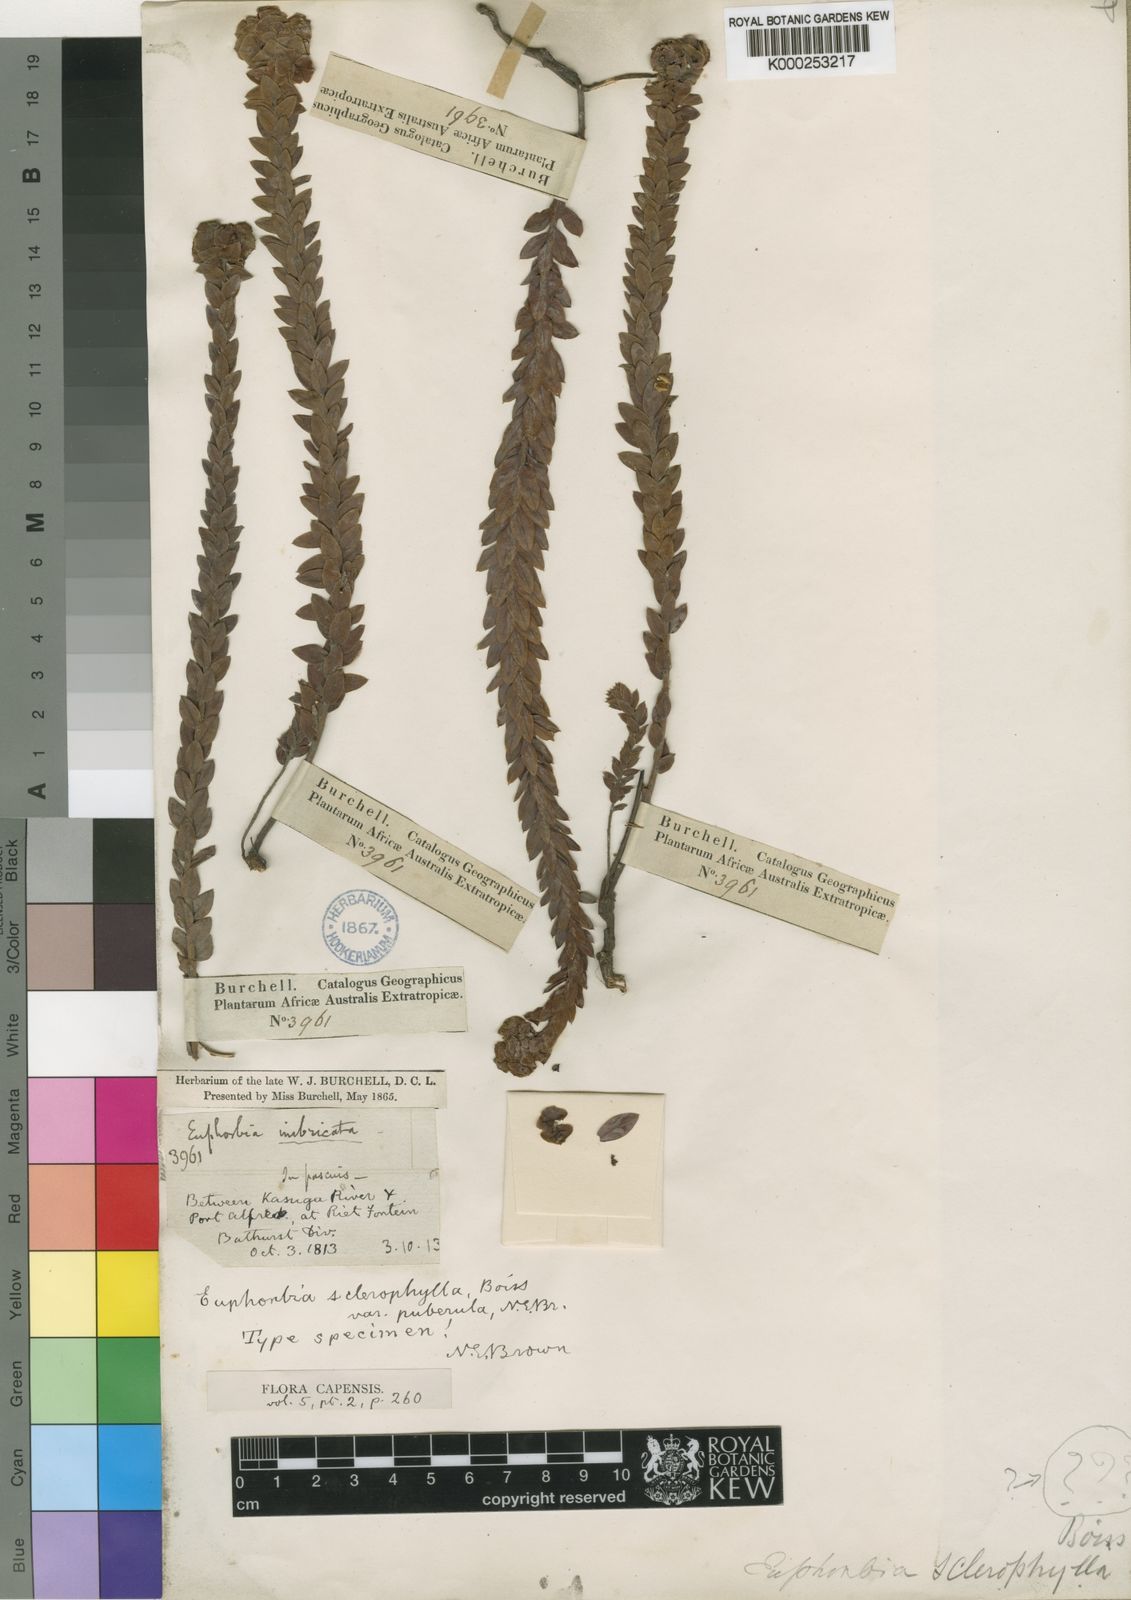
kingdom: Plantae
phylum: Tracheophyta
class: Magnoliopsida
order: Malpighiales
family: Euphorbiaceae
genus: Euphorbia
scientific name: Euphorbia sclerophylla
